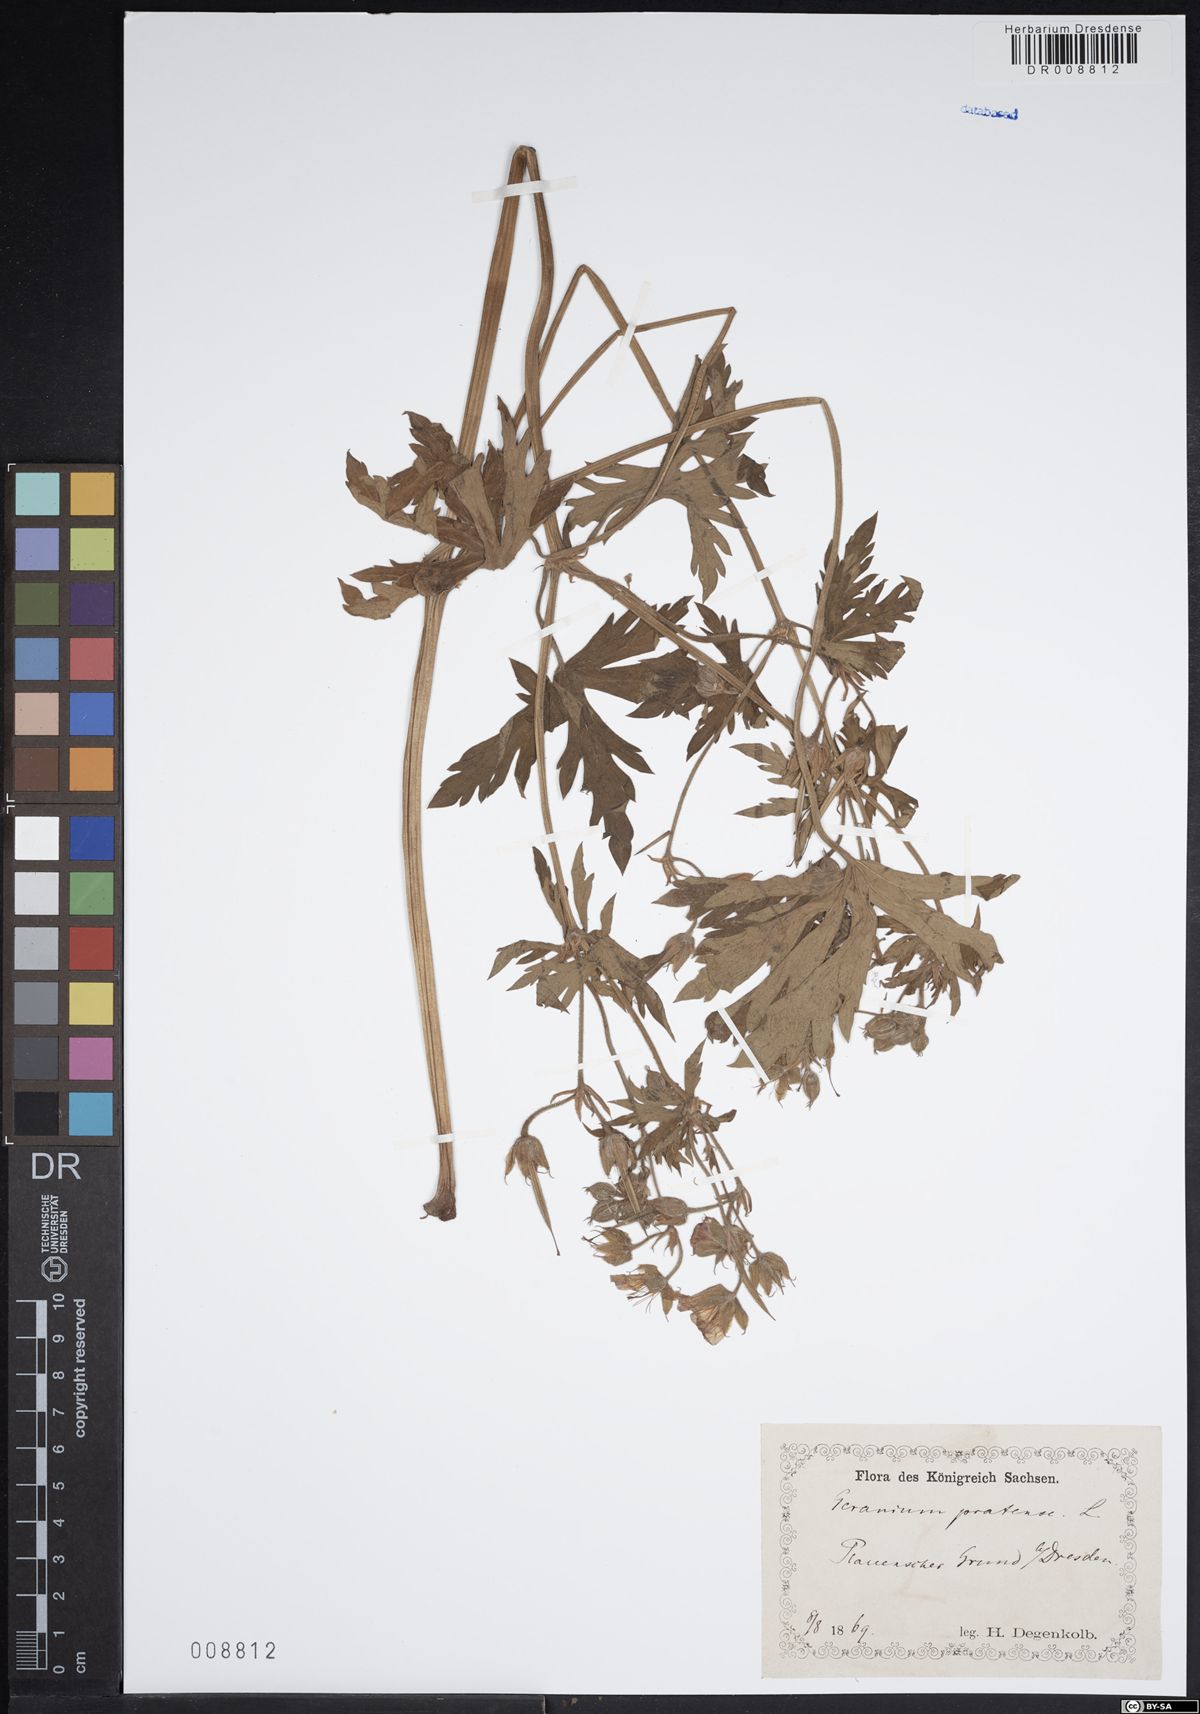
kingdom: Plantae
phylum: Tracheophyta
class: Magnoliopsida
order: Geraniales
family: Geraniaceae
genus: Geranium
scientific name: Geranium pratense
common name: Meadow crane's-bill
